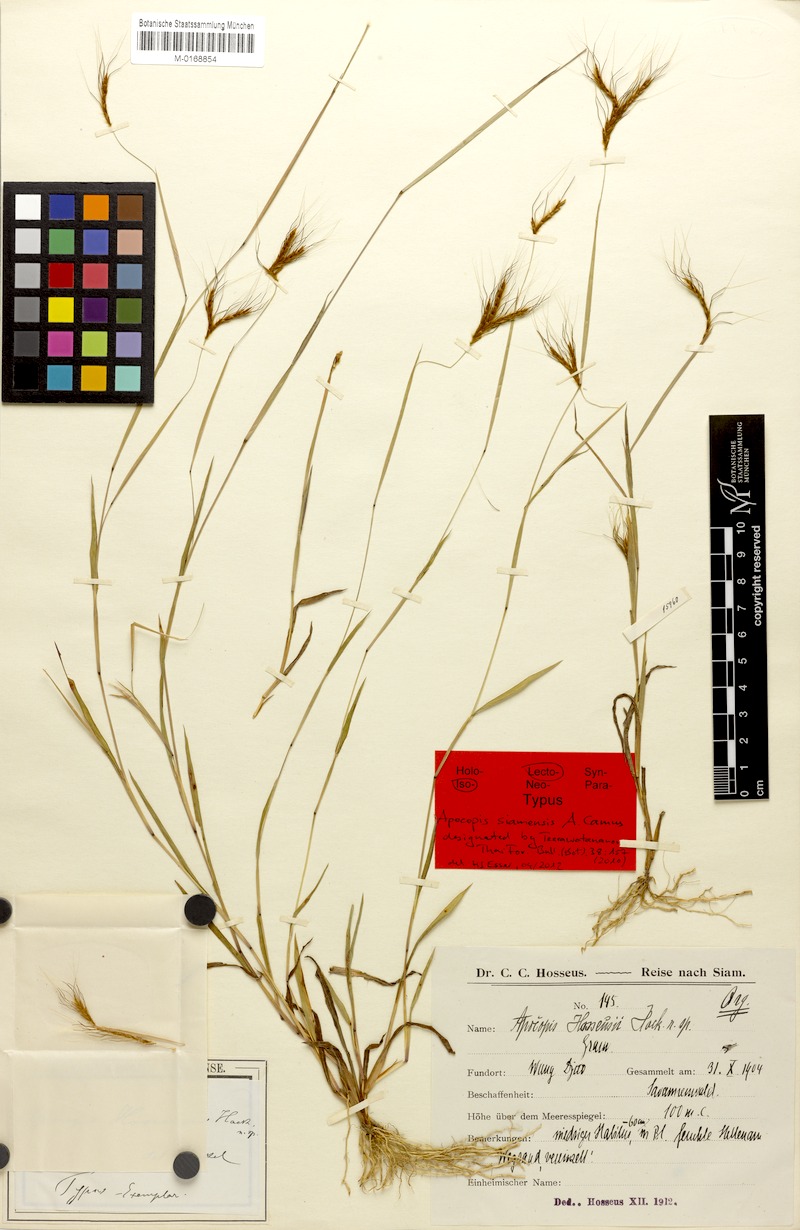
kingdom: Plantae
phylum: Tracheophyta
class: Liliopsida
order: Poales
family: Poaceae
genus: Apocopis
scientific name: Apocopis siamensis
